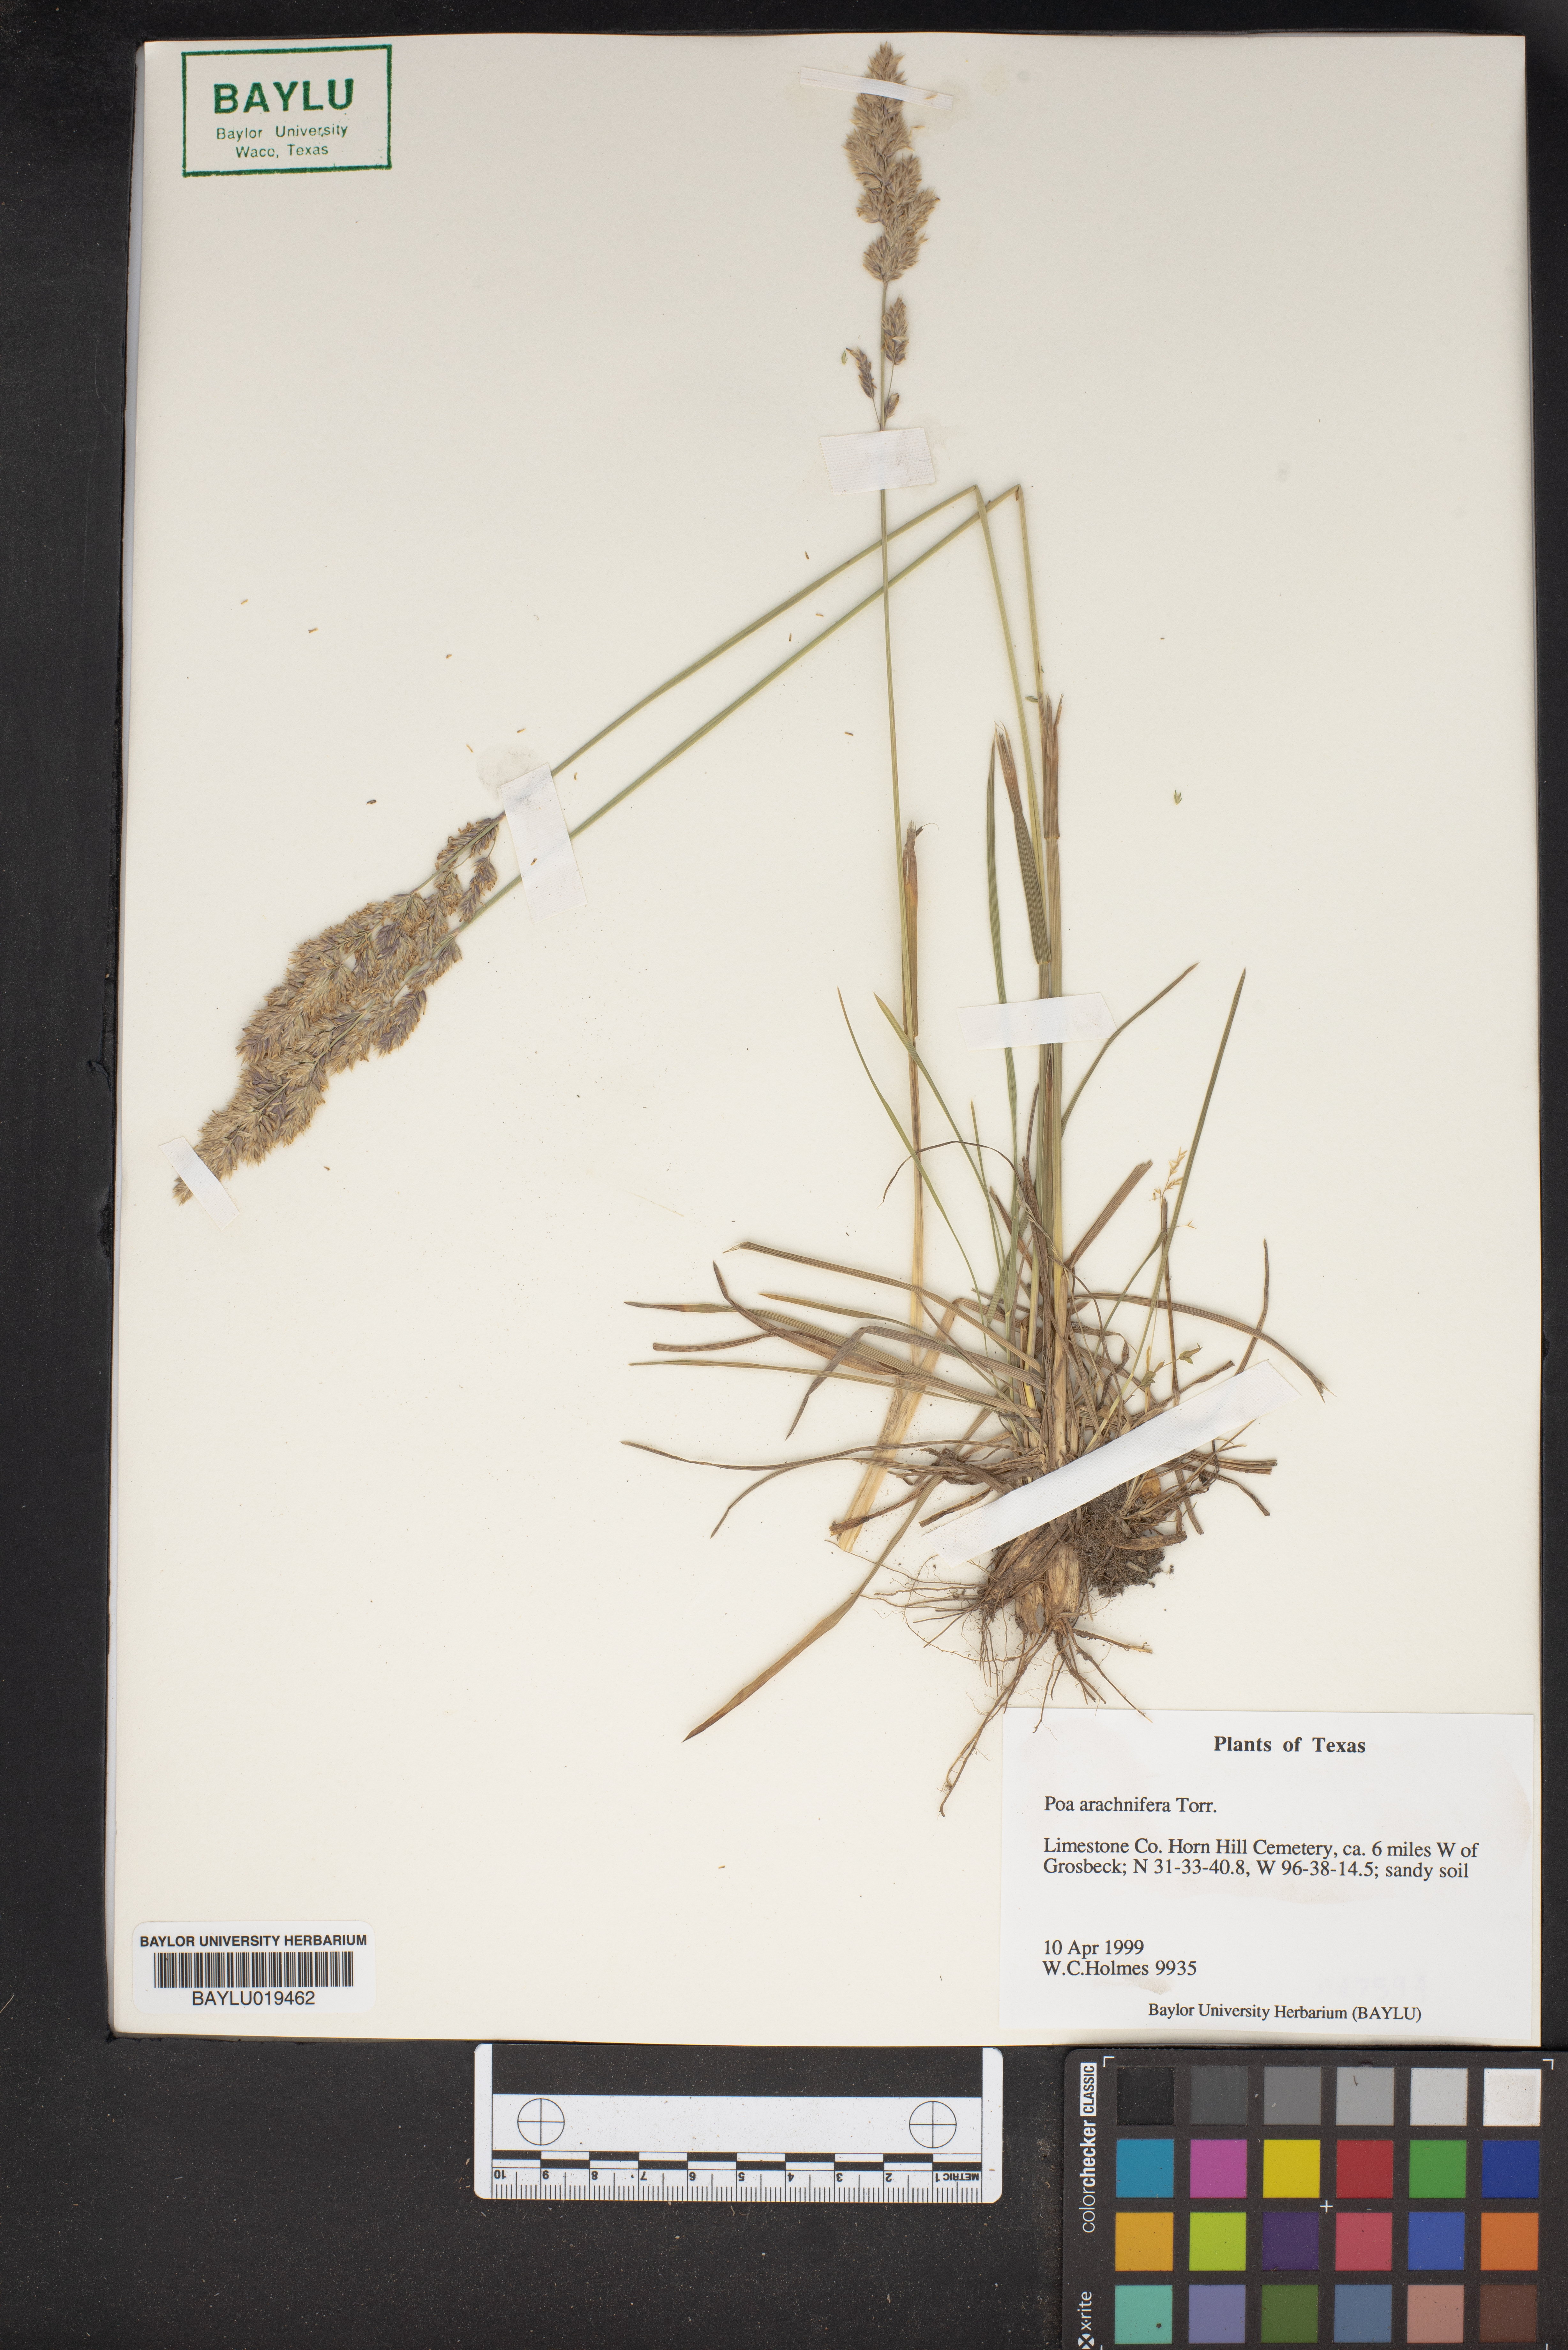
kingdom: Plantae
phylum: Tracheophyta
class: Liliopsida
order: Poales
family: Poaceae
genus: Poa
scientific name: Poa arachnifera
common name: Texas bluegrass
